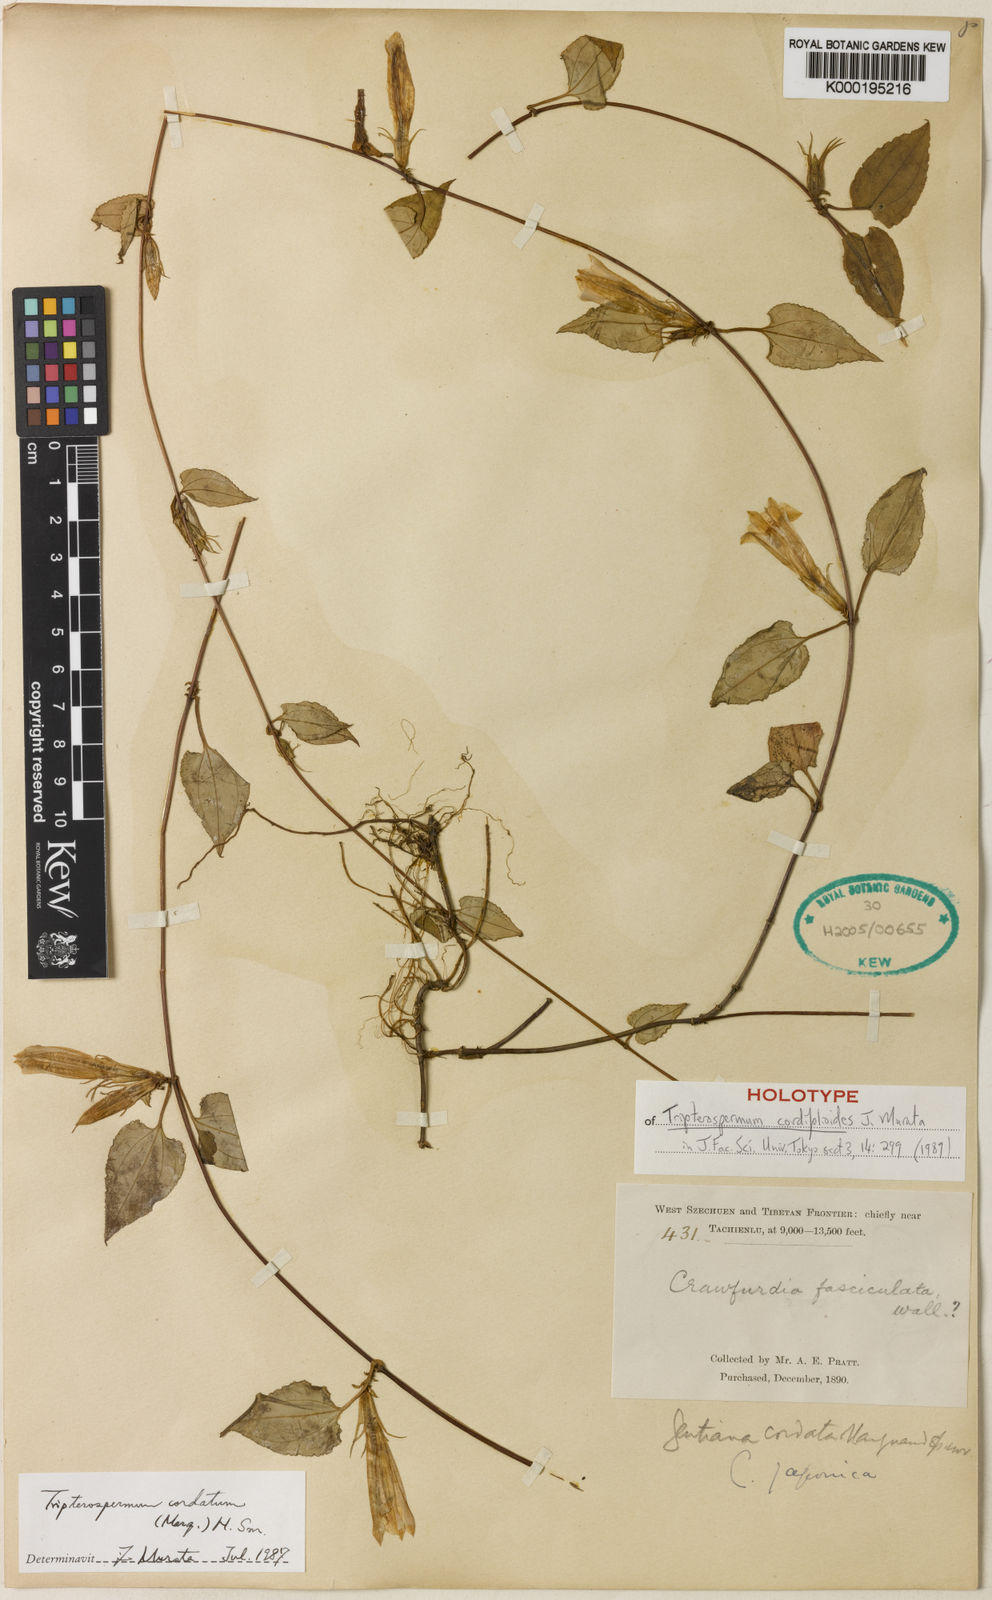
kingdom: Plantae
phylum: Tracheophyta
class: Magnoliopsida
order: Gentianales
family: Gentianaceae
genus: Tripterospermum
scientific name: Tripterospermum cordifolioides
